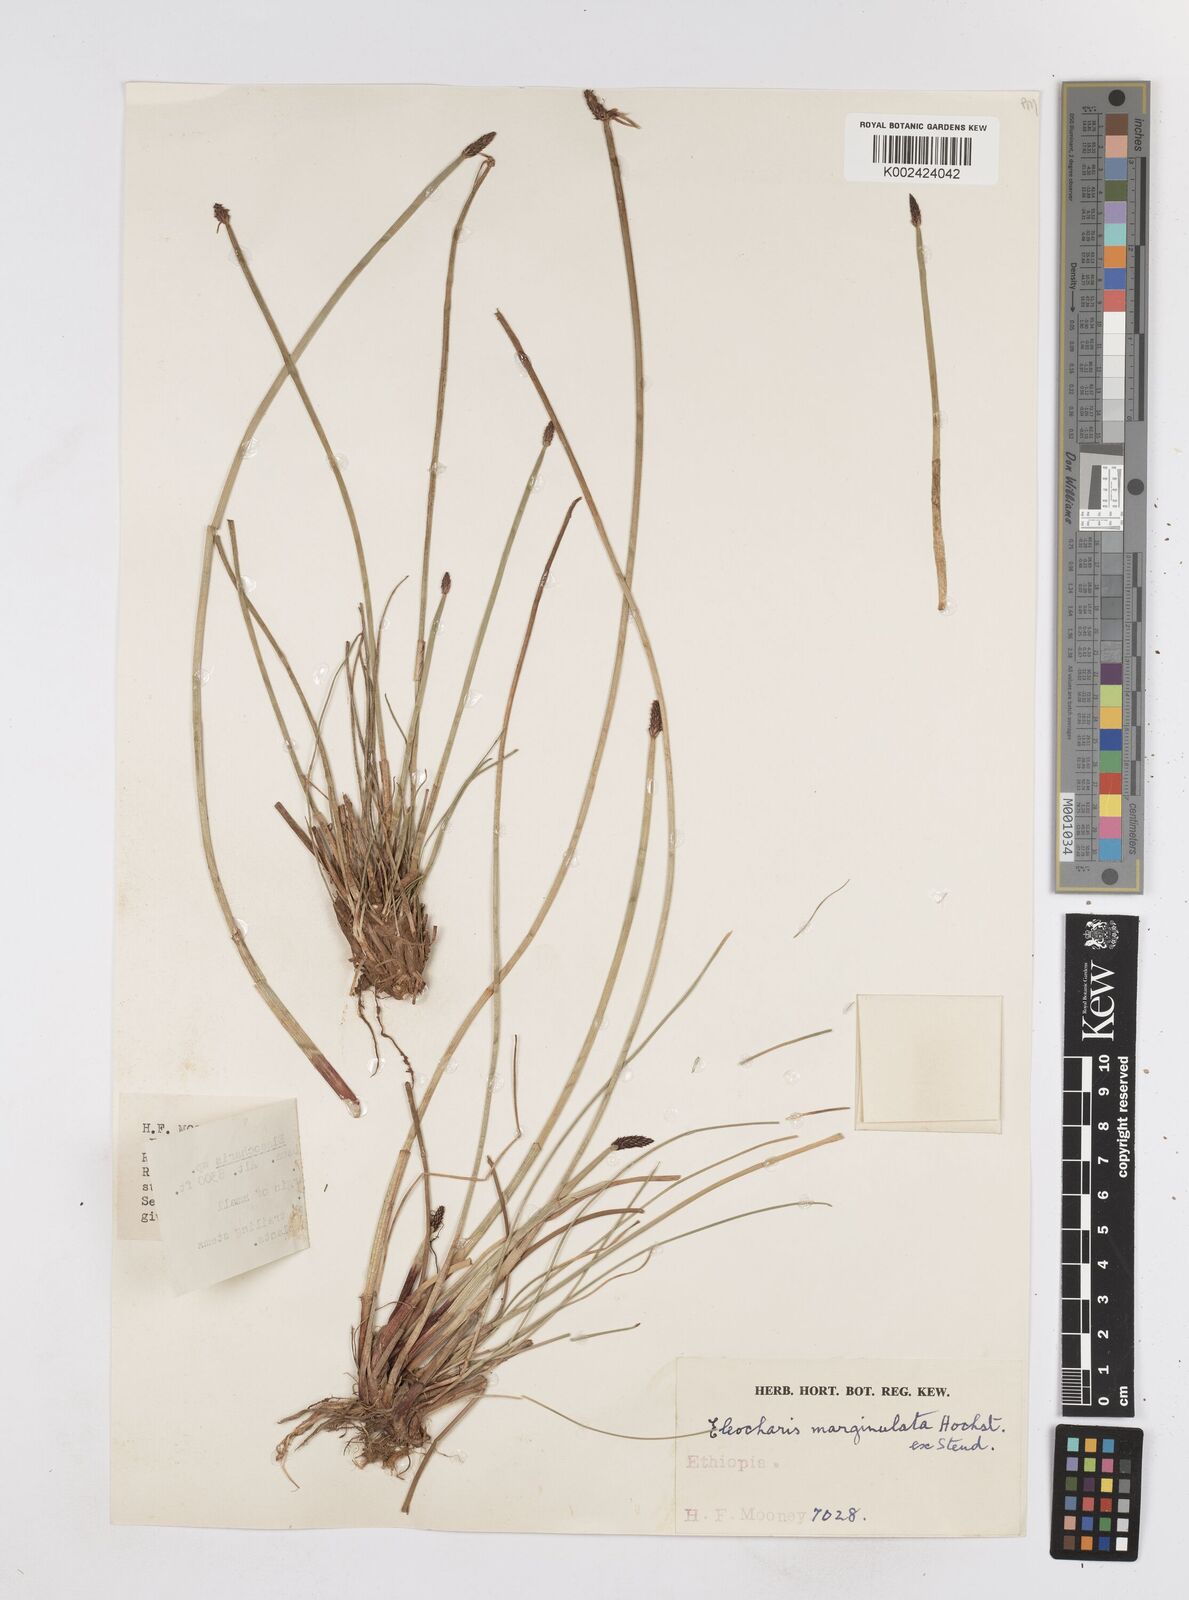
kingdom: Plantae
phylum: Tracheophyta
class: Liliopsida
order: Poales
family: Cyperaceae
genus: Eleocharis
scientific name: Eleocharis marginulata
